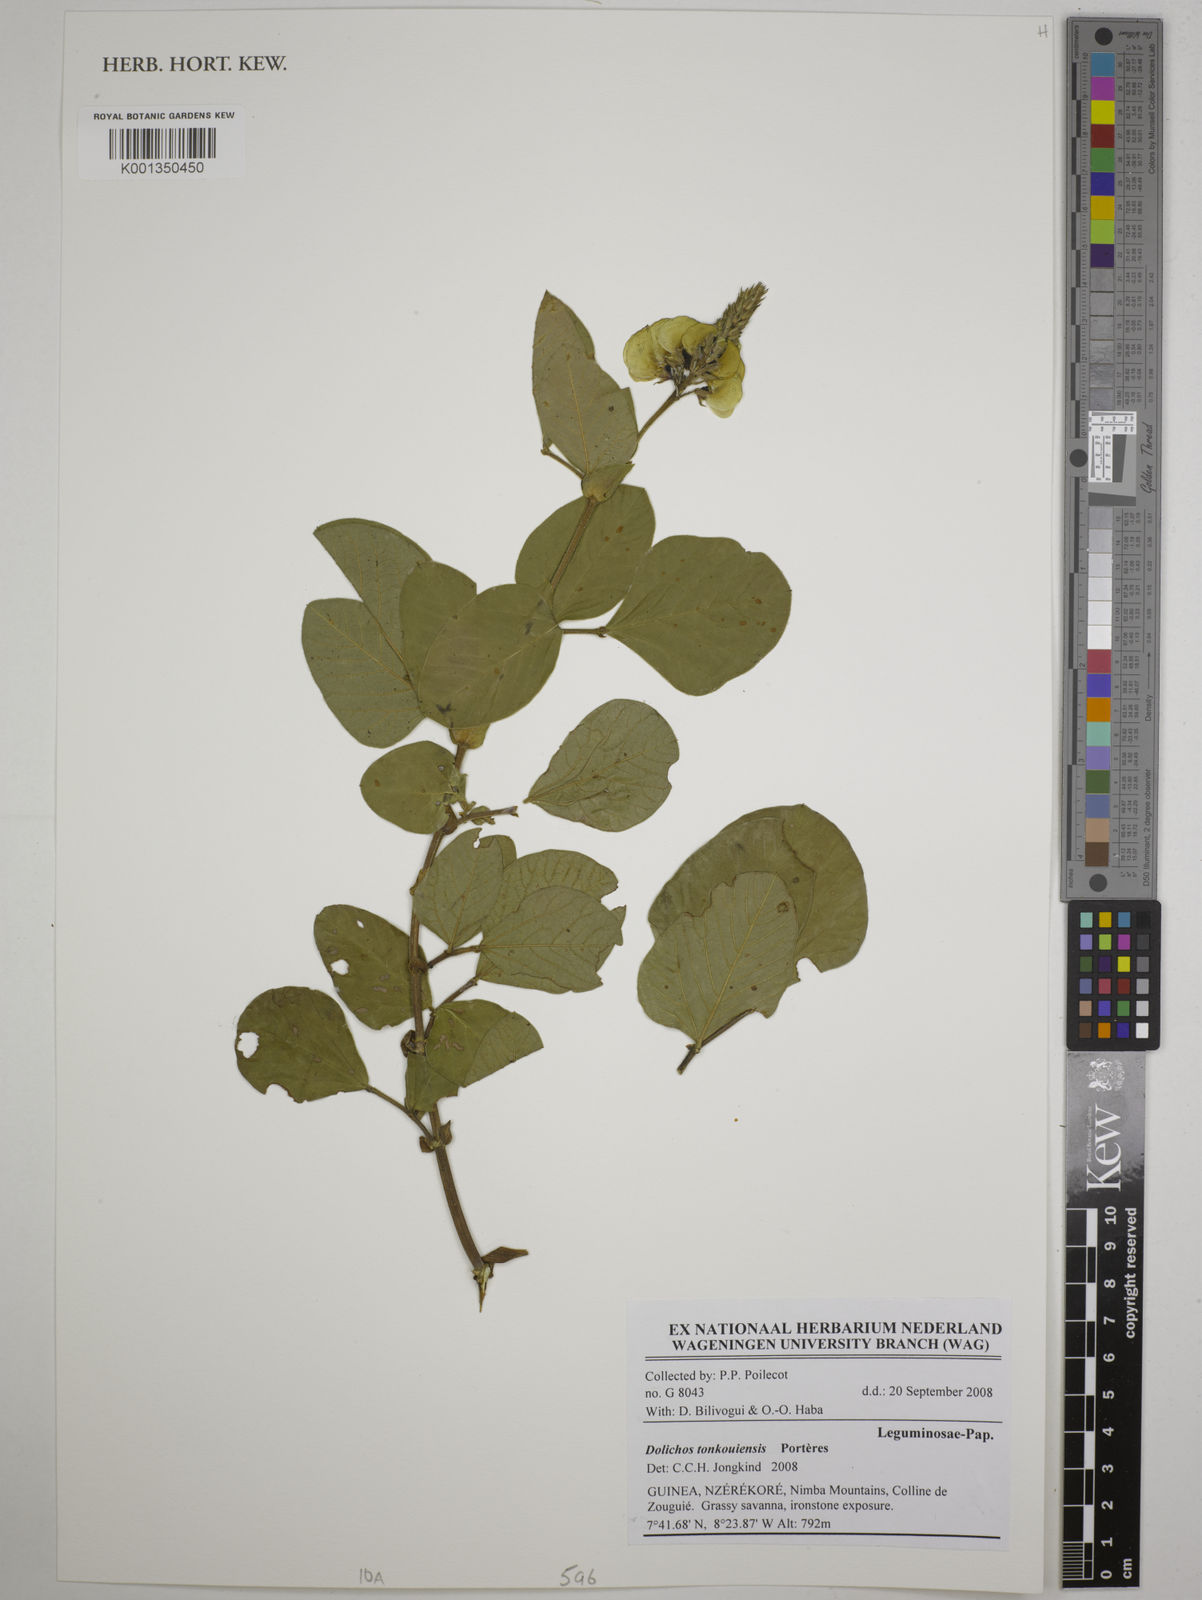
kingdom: Plantae
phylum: Tracheophyta
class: Magnoliopsida
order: Fabales
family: Fabaceae
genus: Dolichos
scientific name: Dolichos tonkouiensis
